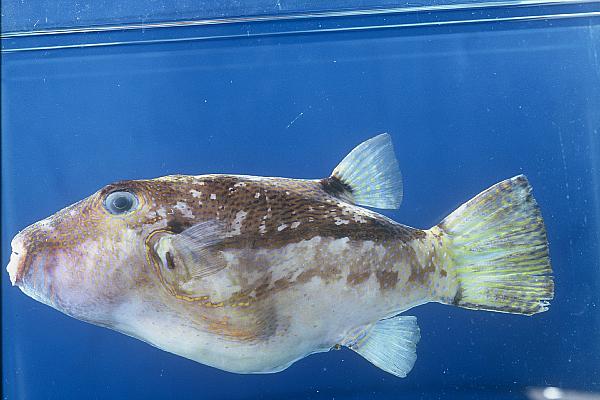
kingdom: Animalia
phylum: Chordata
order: Tetraodontiformes
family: Tetraodontidae
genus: Canthigaster
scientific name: Canthigaster rivulata
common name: Brown-lined puffer
